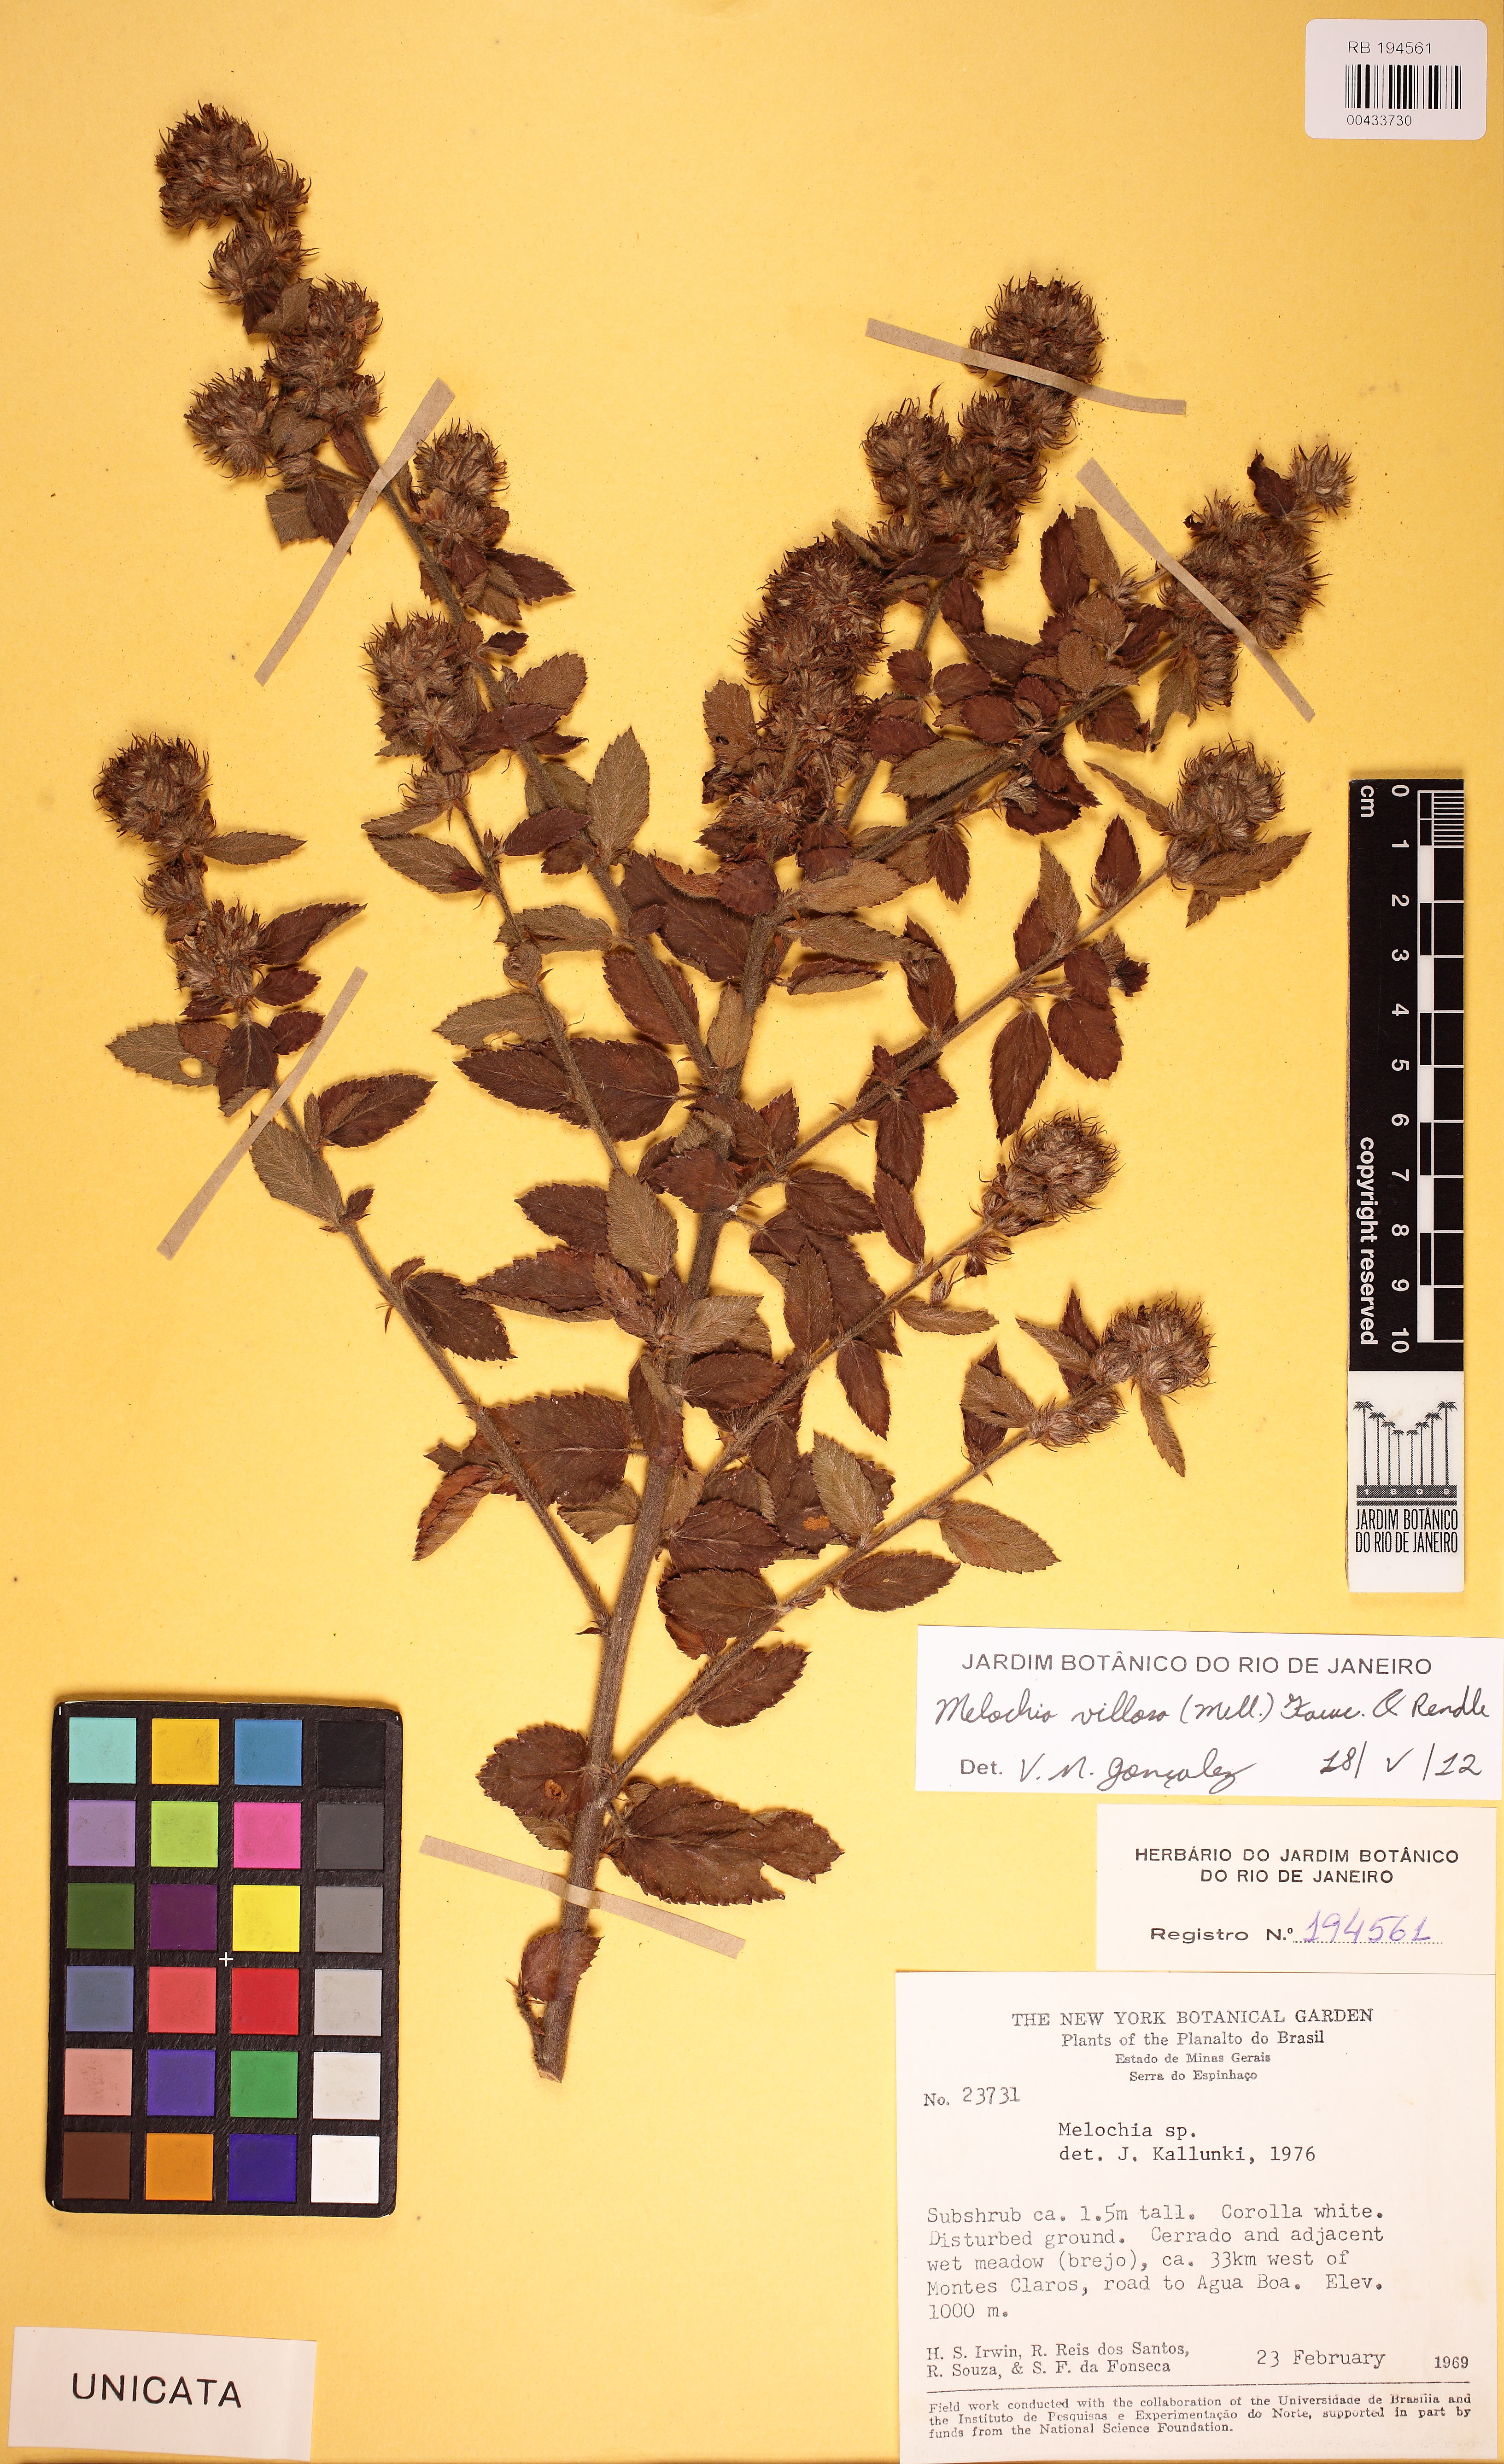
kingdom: Plantae
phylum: Tracheophyta
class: Magnoliopsida
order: Malvales
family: Malvaceae
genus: Melochia
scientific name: Melochia
